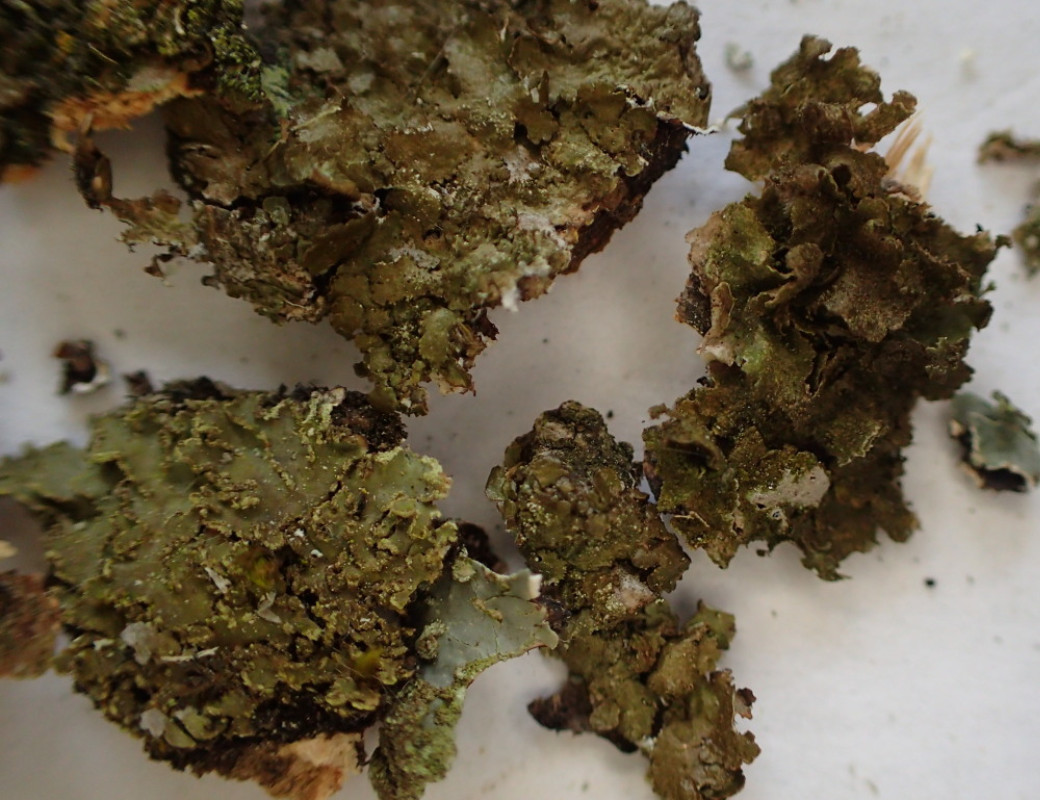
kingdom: Fungi
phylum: Ascomycota
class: Lecanoromycetes
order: Lecanorales
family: Parmeliaceae
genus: Melanelixia
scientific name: Melanelixia subaurifera
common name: guldpudret skållav
